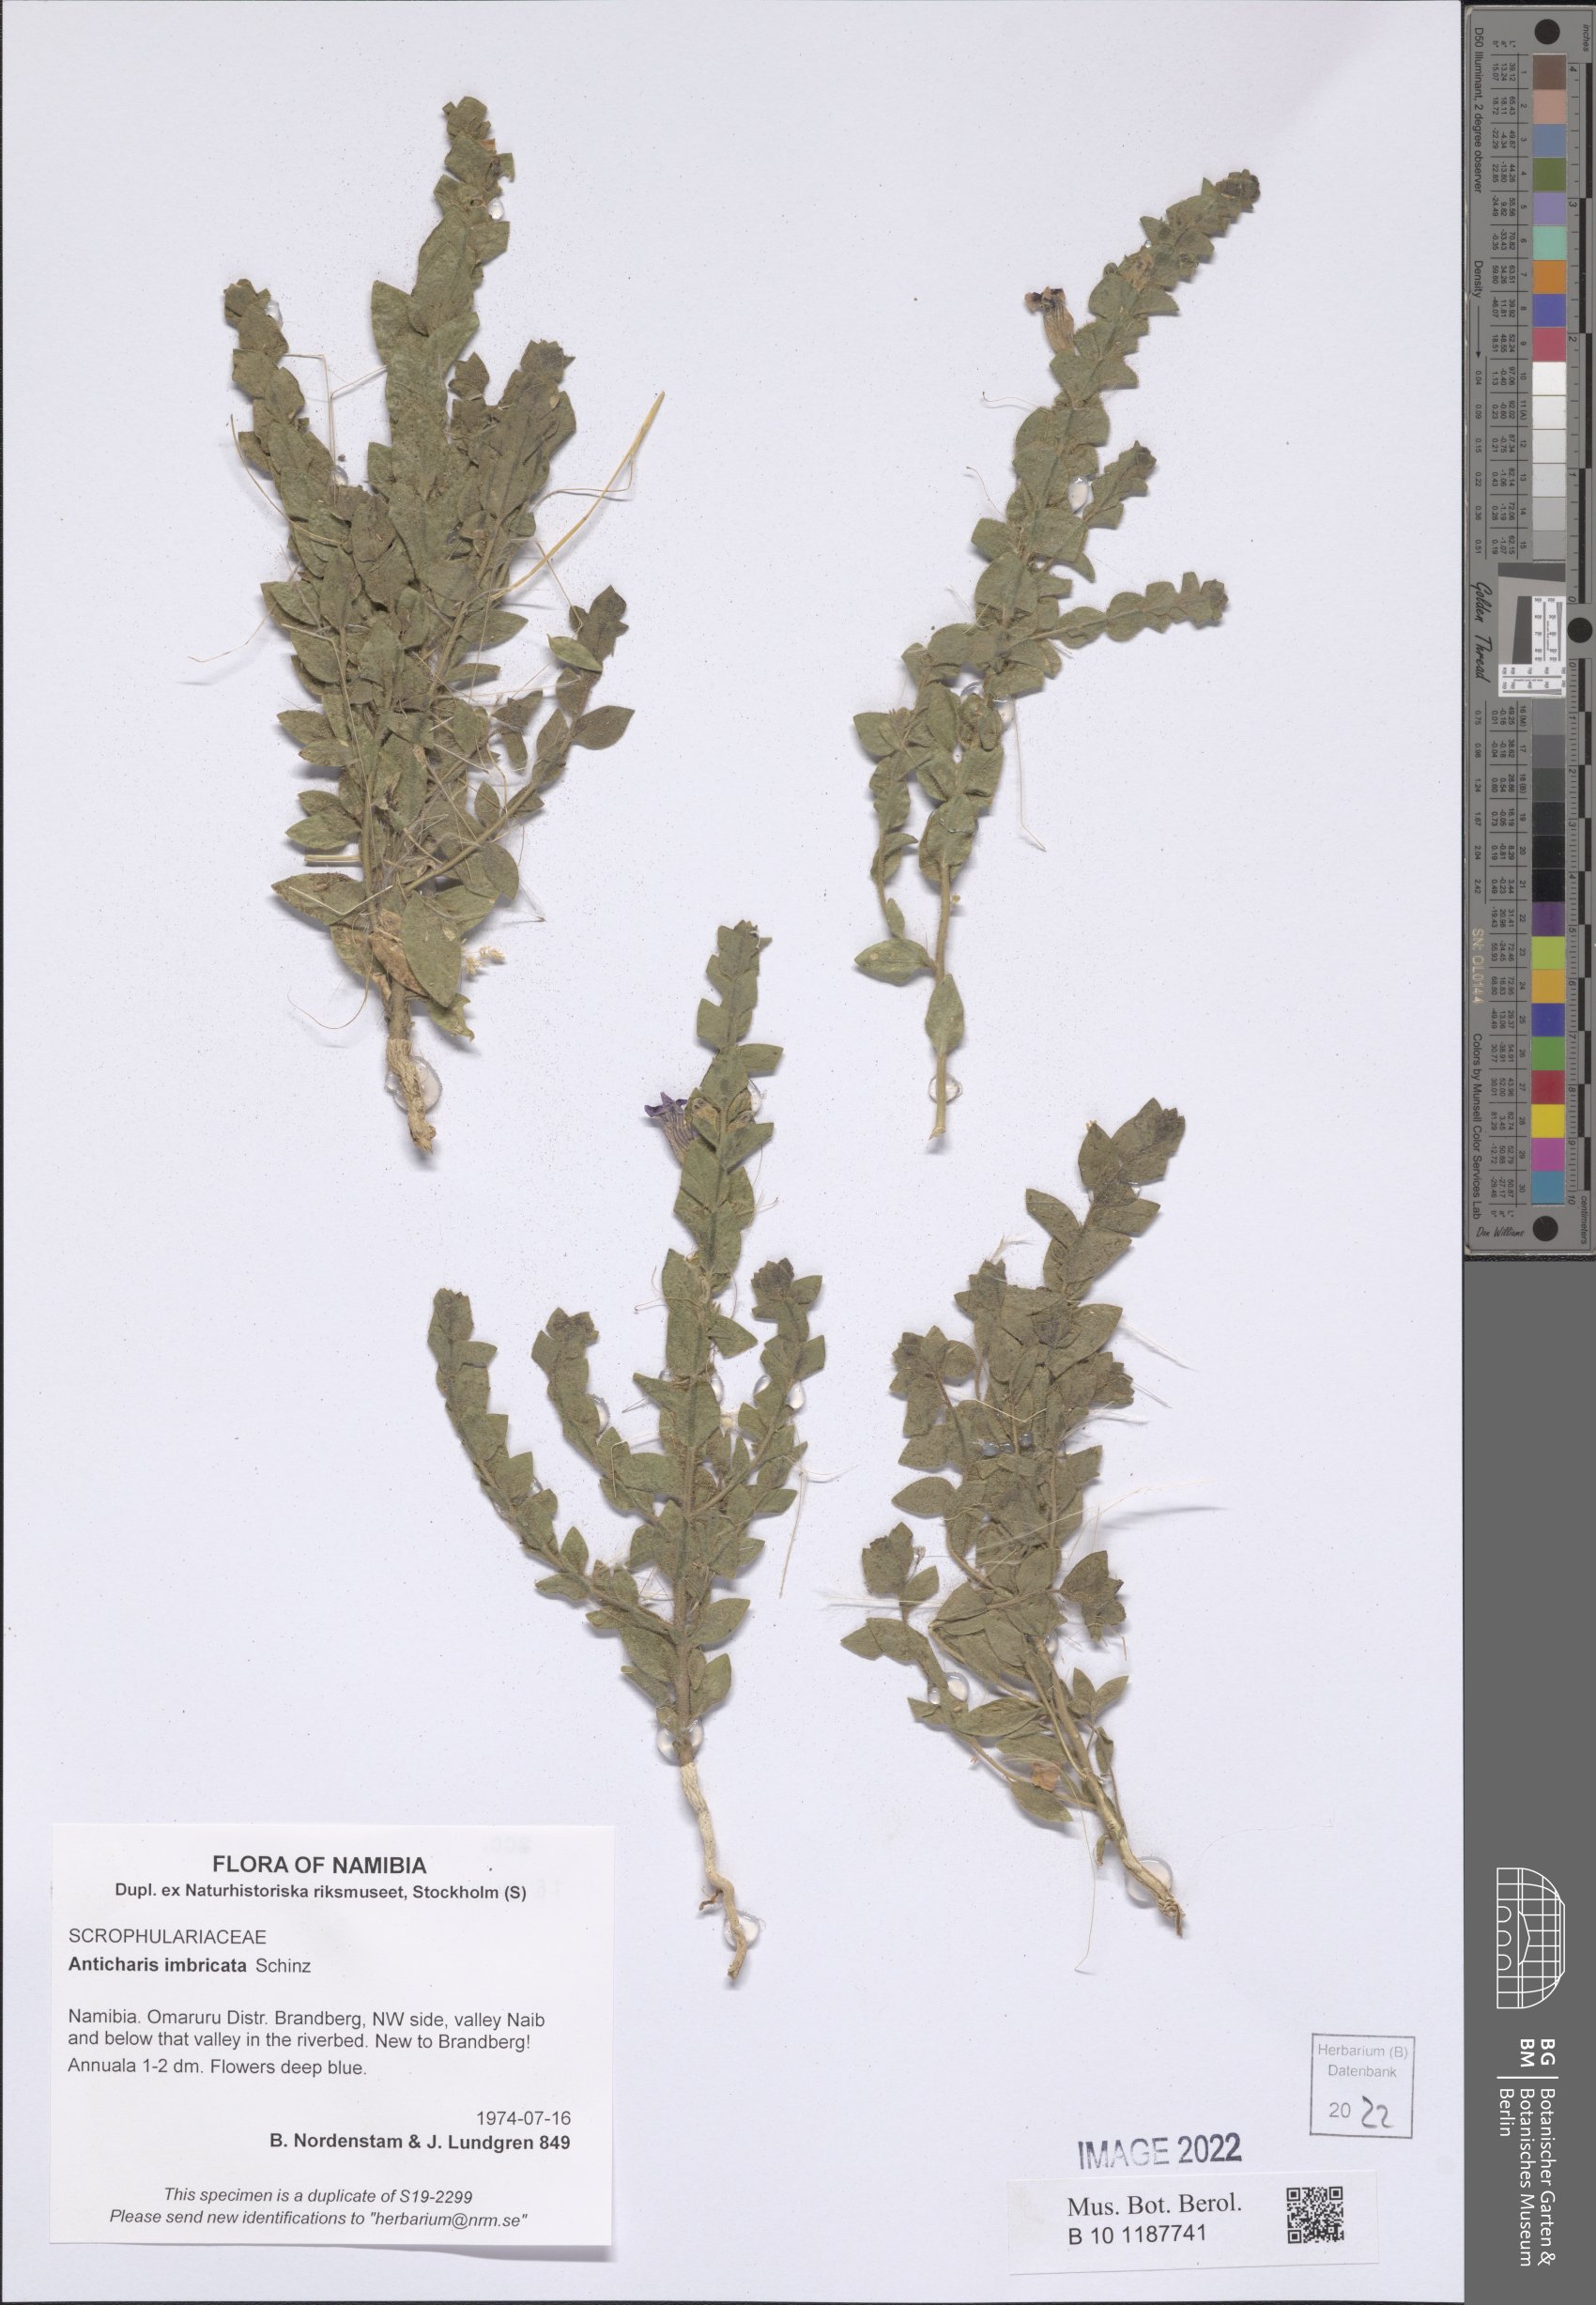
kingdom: Plantae
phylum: Tracheophyta
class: Magnoliopsida
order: Lamiales
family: Scrophulariaceae
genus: Anticharis
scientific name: Anticharis imbricata
